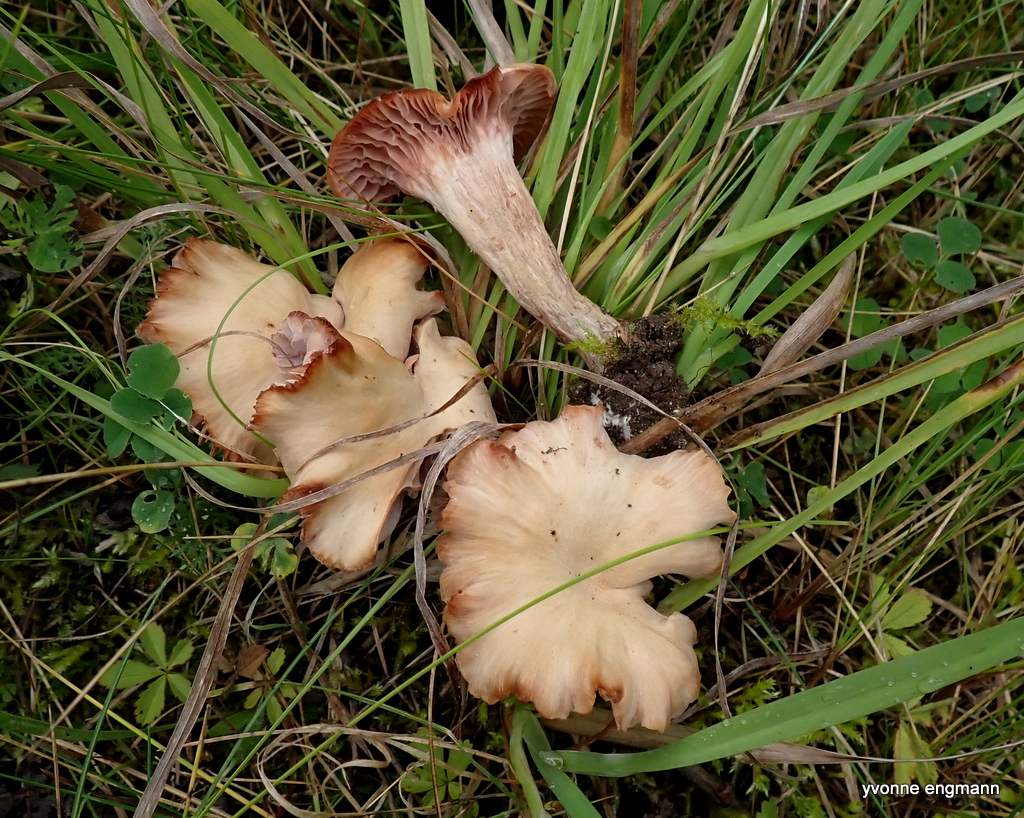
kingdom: Fungi
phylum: Basidiomycota
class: Agaricomycetes
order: Agaricales
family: Hydnangiaceae
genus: Laccaria
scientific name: Laccaria
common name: ametysthat
